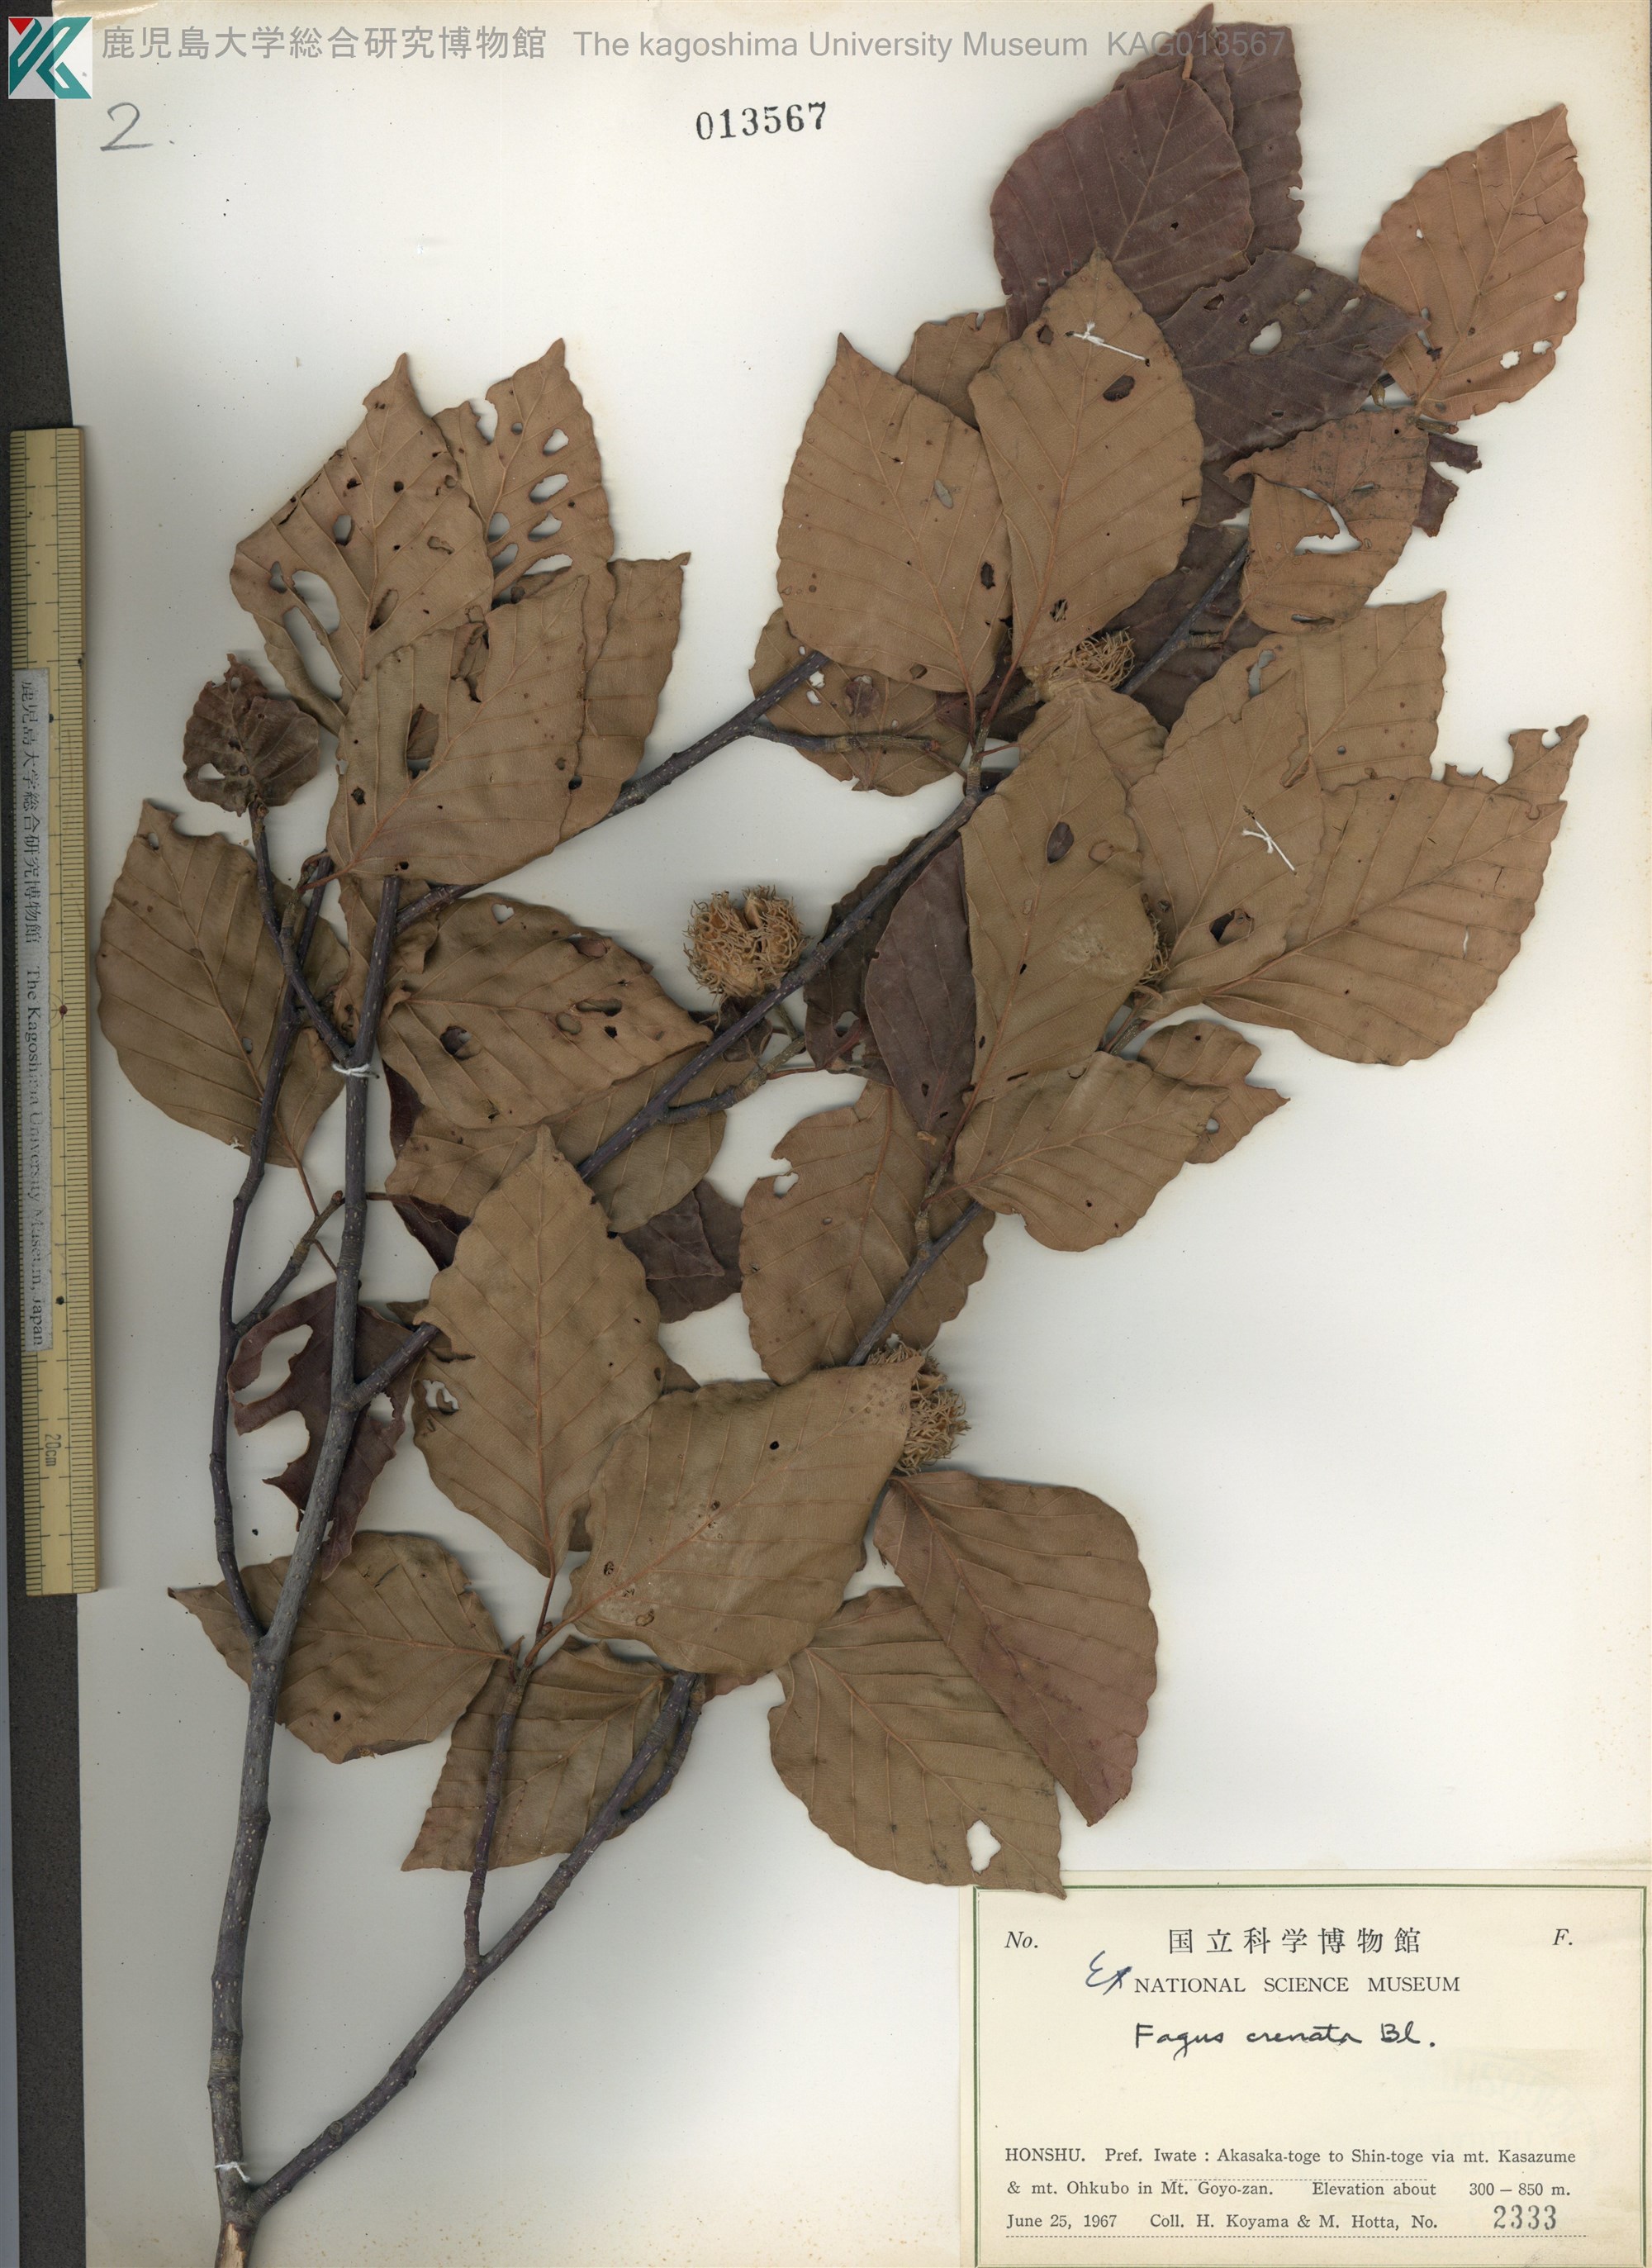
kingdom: Plantae
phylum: Tracheophyta
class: Magnoliopsida
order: Fagales
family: Fagaceae
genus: Fagus
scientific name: Fagus crenata
